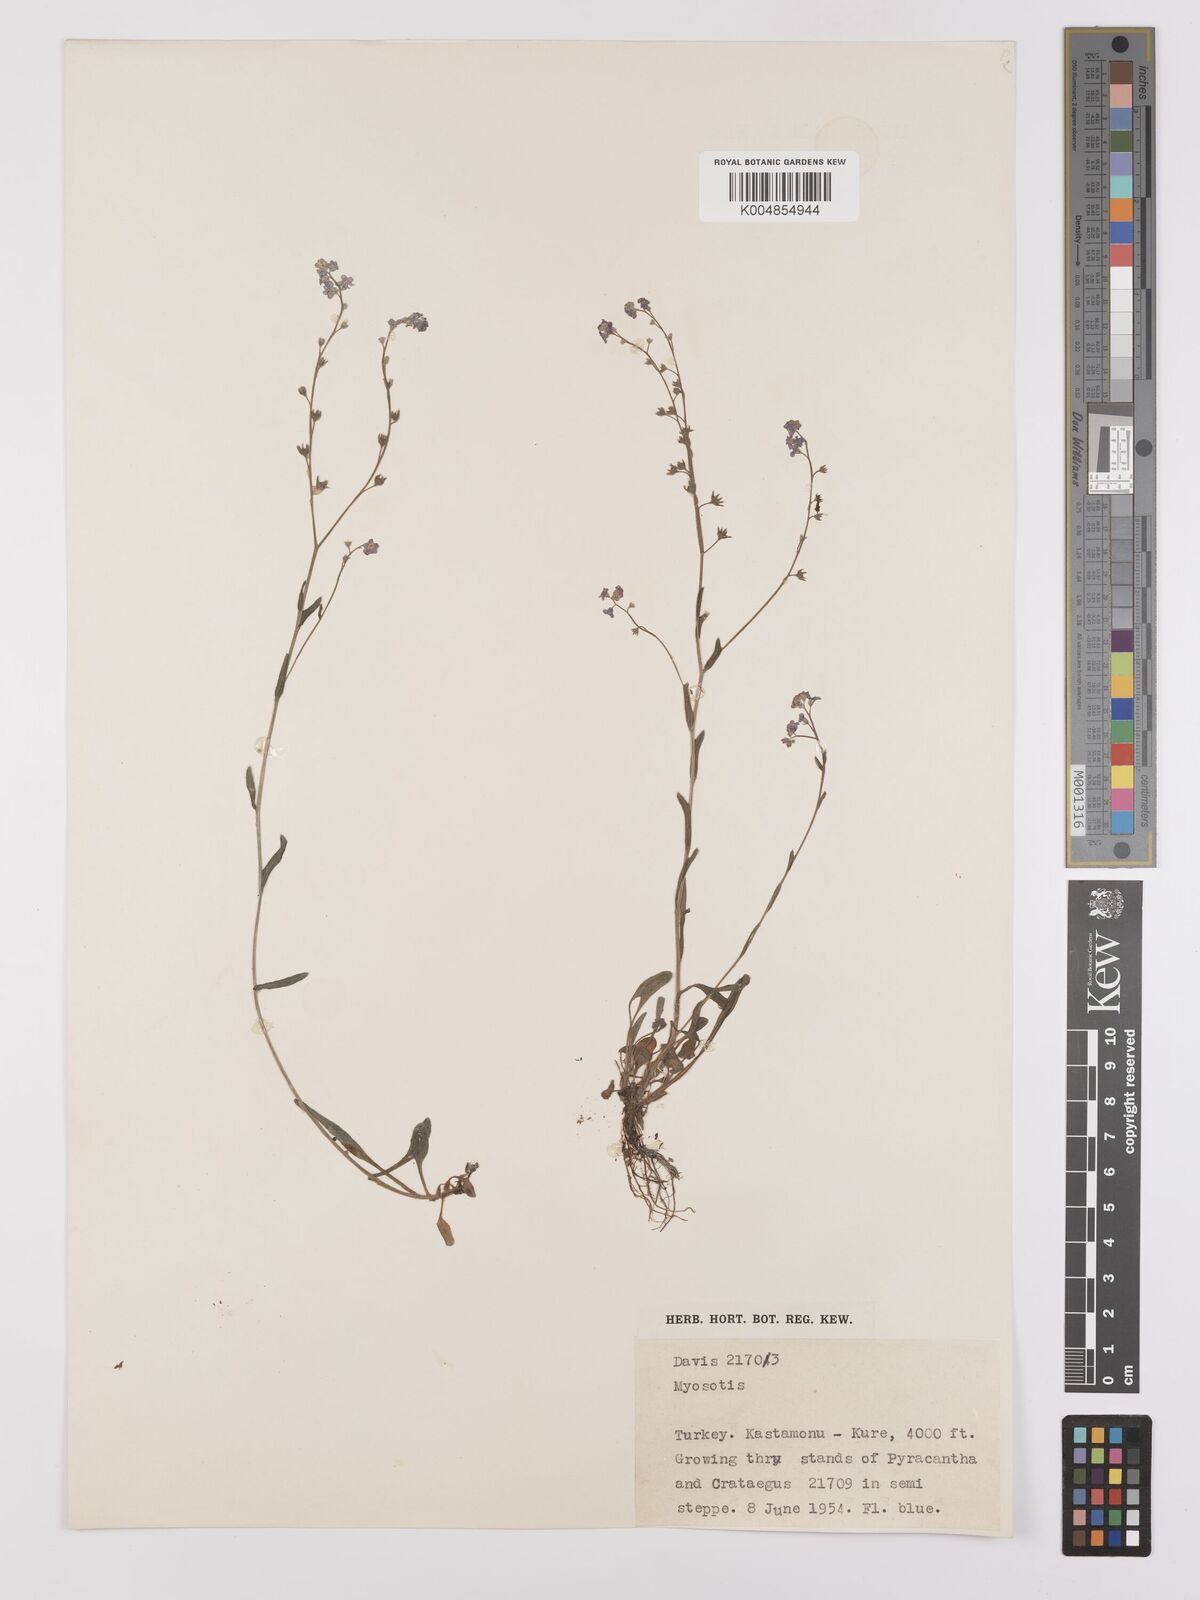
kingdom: Plantae
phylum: Tracheophyta
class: Magnoliopsida
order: Boraginales
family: Boraginaceae
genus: Myosotis
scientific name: Myosotis
